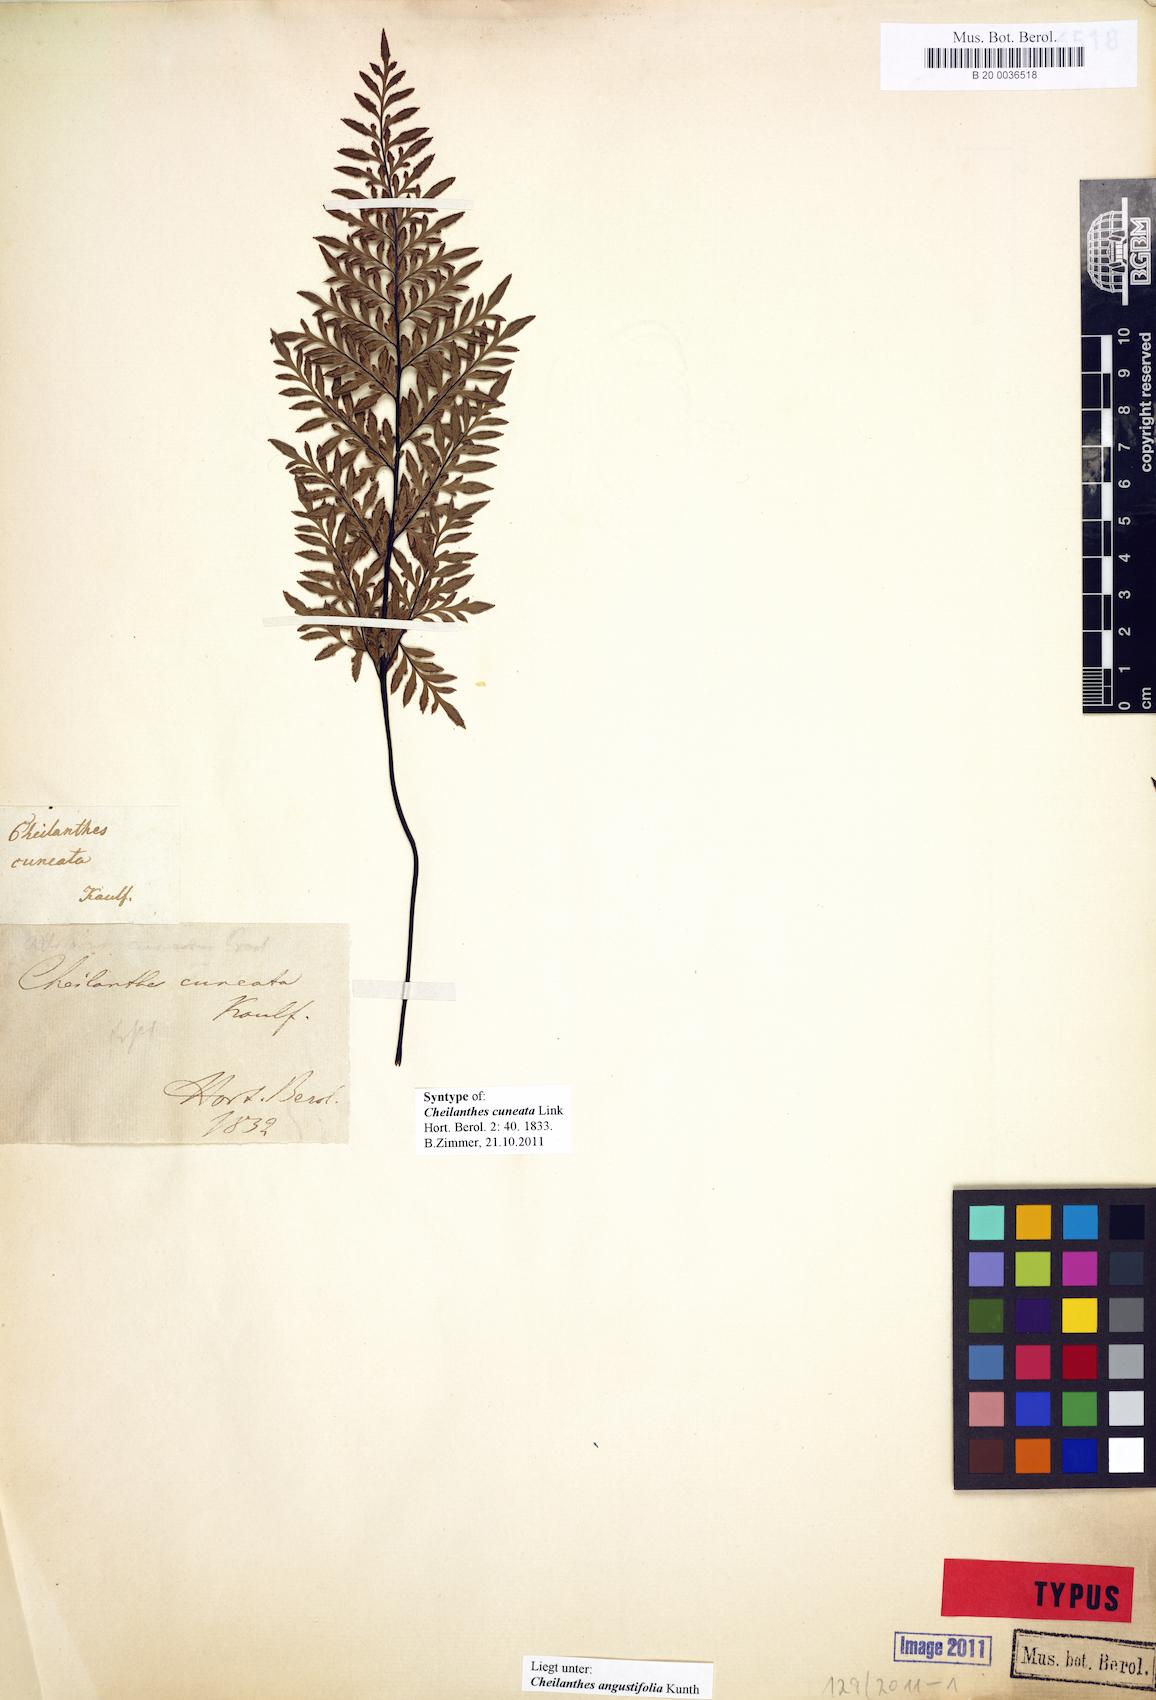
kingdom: Plantae
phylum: Tracheophyta
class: Polypodiopsida
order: Polypodiales
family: Pteridaceae
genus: Gaga
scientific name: Gaga cuneata
